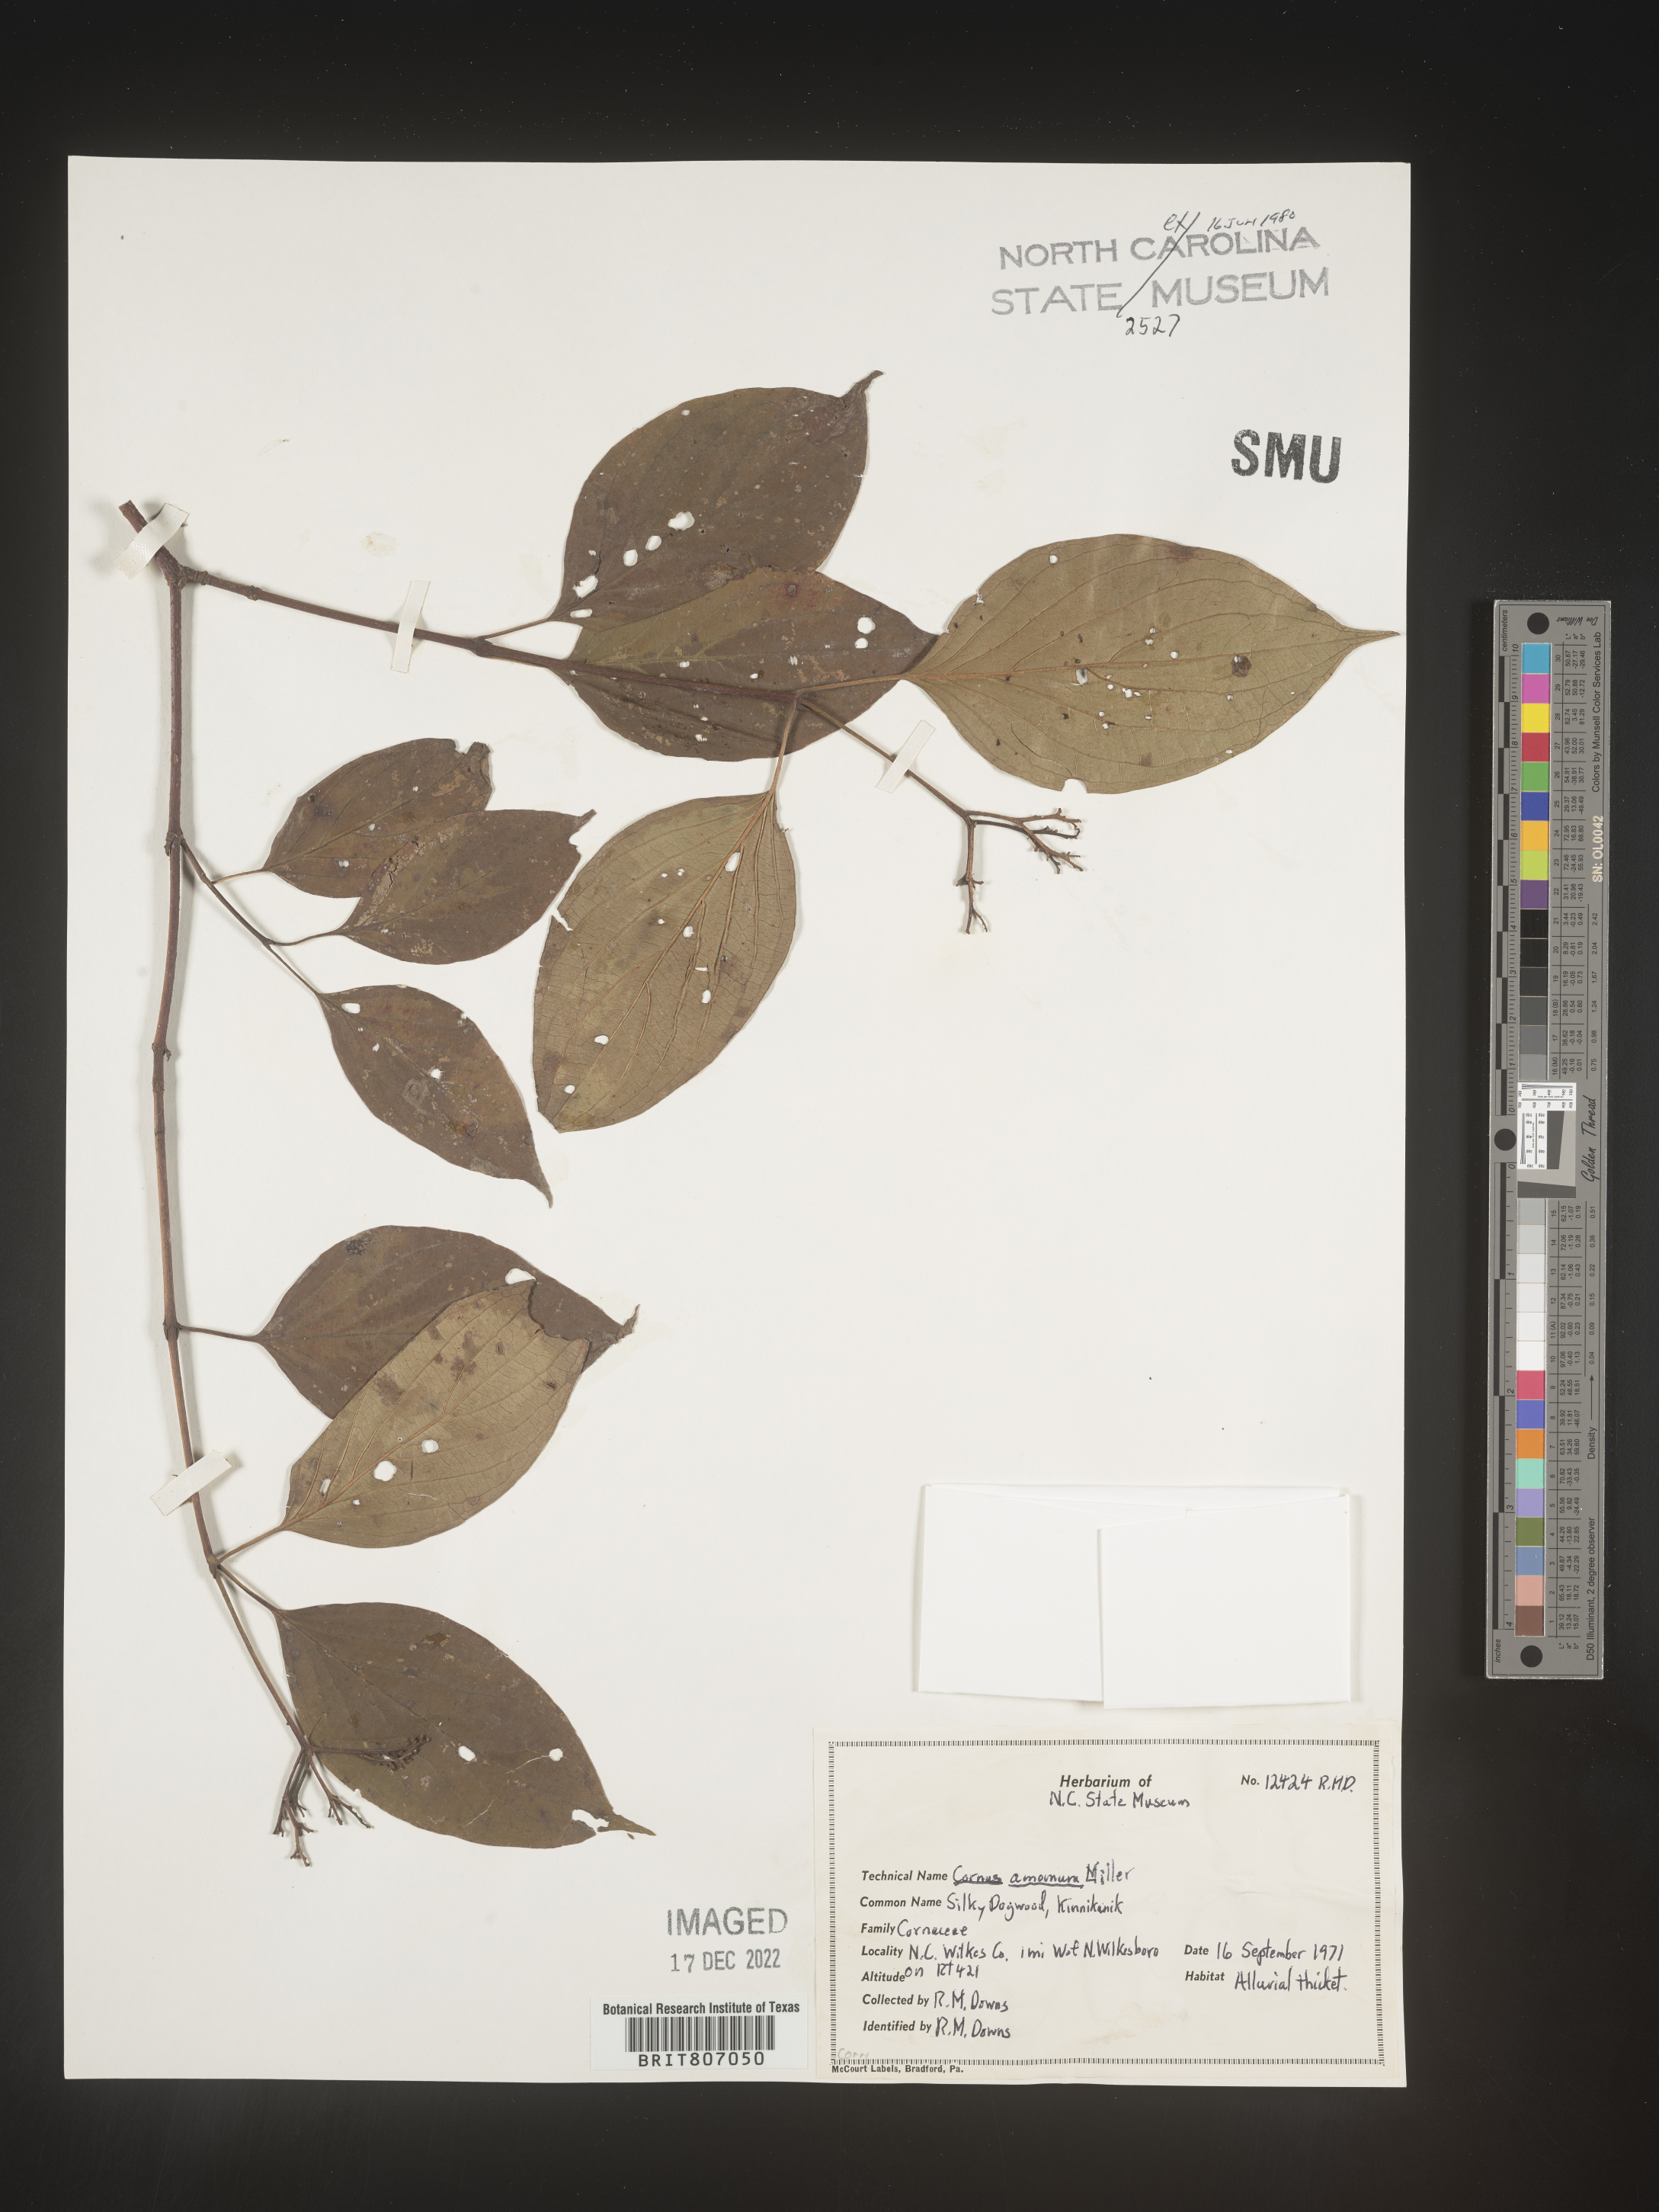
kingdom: Plantae
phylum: Tracheophyta
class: Magnoliopsida
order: Cornales
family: Cornaceae
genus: Cornus
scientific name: Cornus amomum
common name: Silky dogwood
